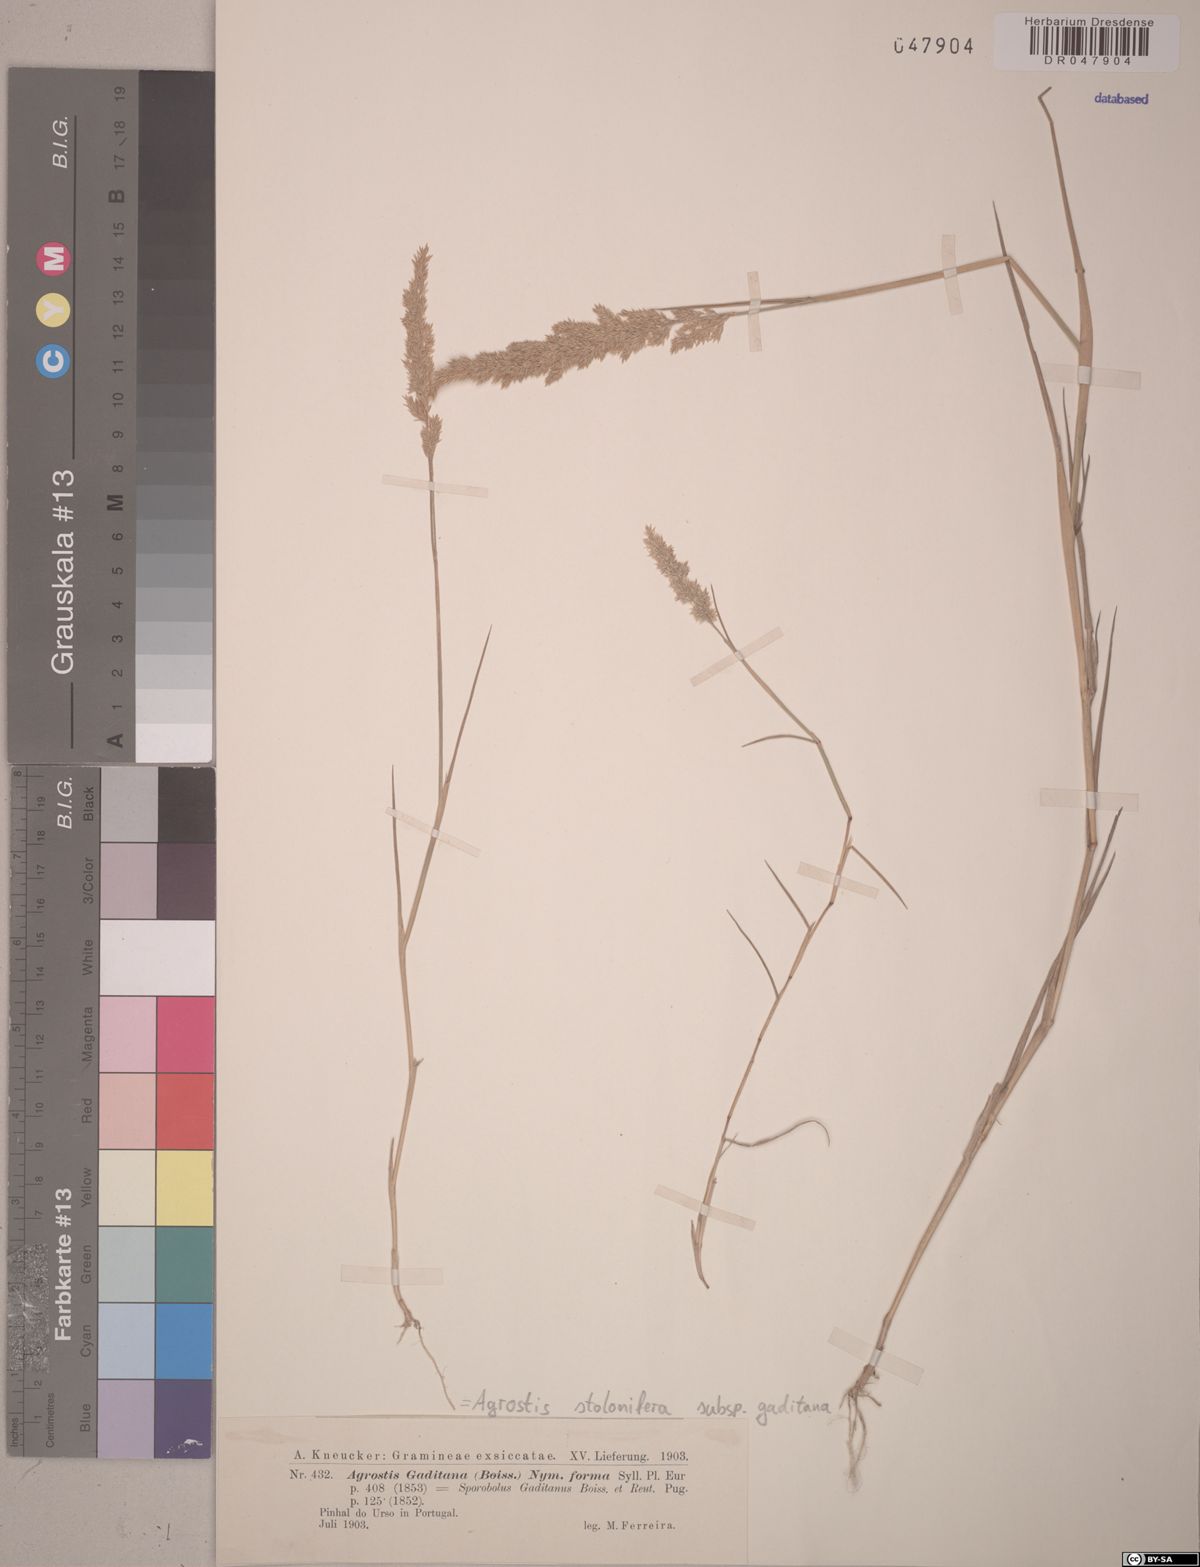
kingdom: Plantae
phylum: Tracheophyta
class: Liliopsida
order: Poales
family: Poaceae
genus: Agrostis
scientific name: Agrostis stolonifera
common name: Creeping bentgrass
